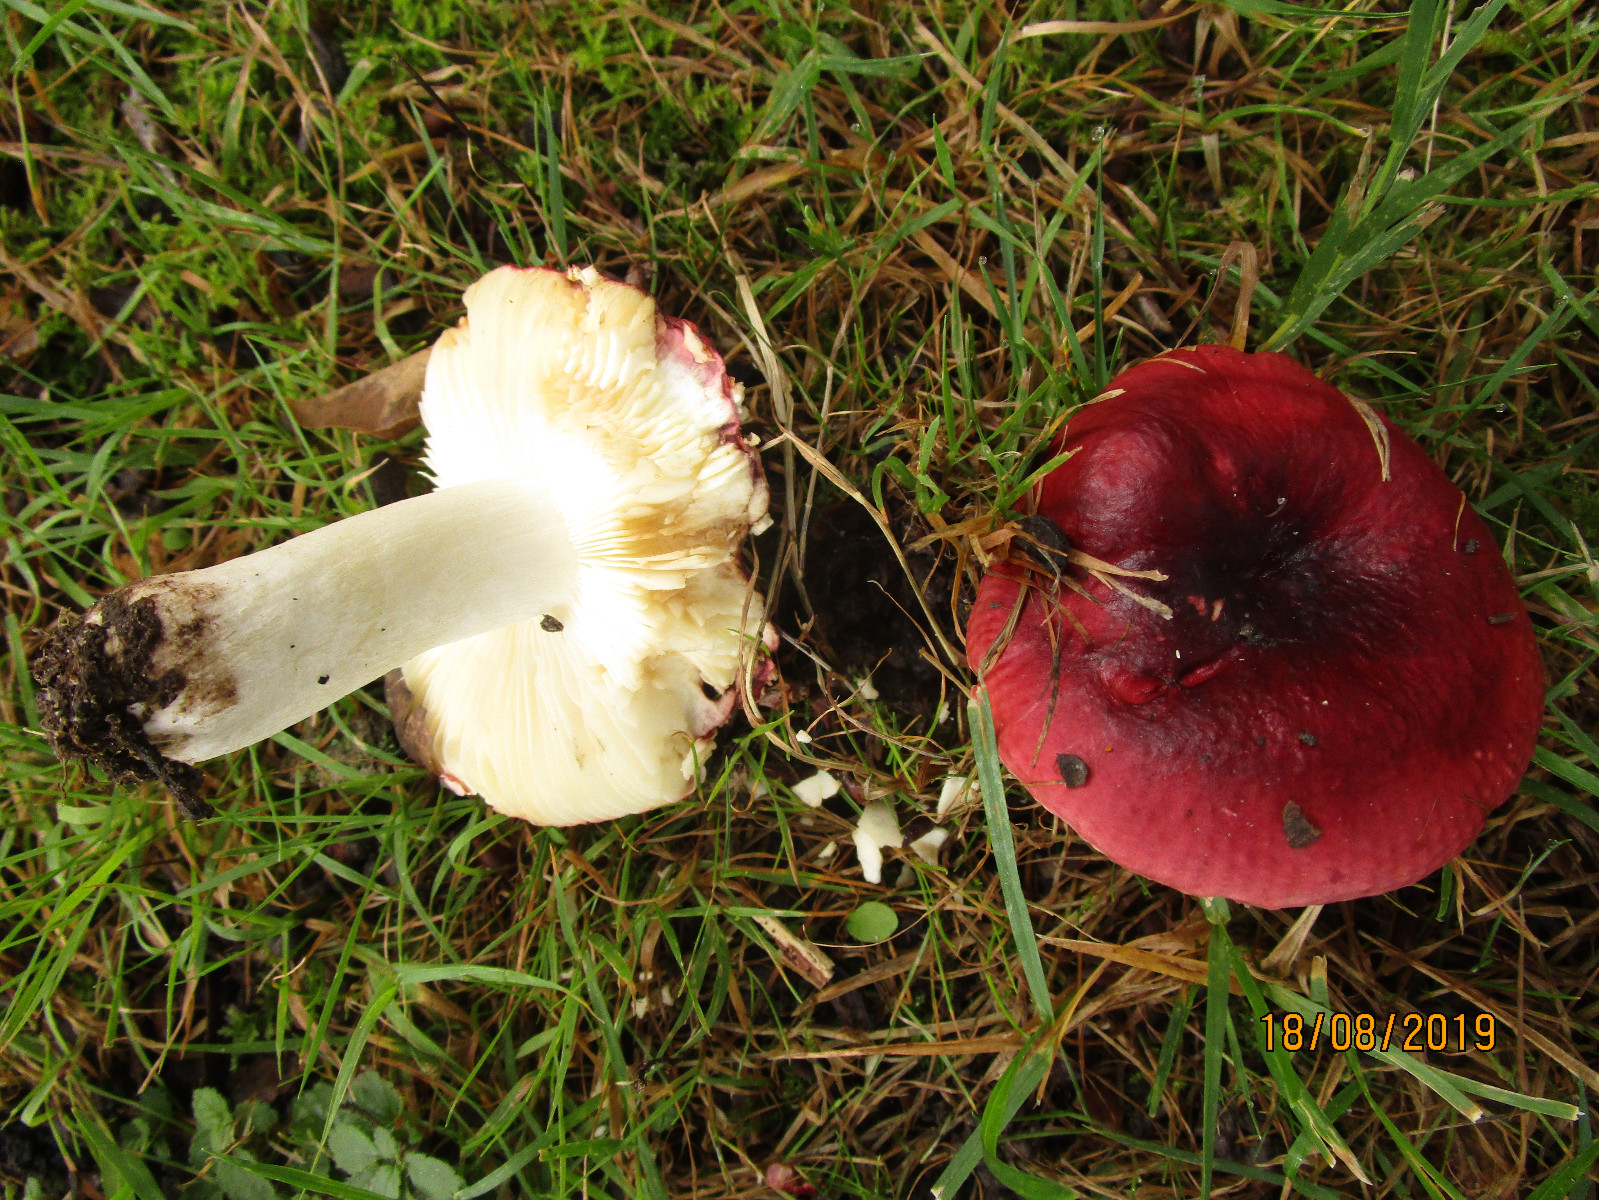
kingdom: Fungi
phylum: Basidiomycota
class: Agaricomycetes
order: Russulales
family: Russulaceae
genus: Russula
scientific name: Russula graveolens
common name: bugtet skørhat
